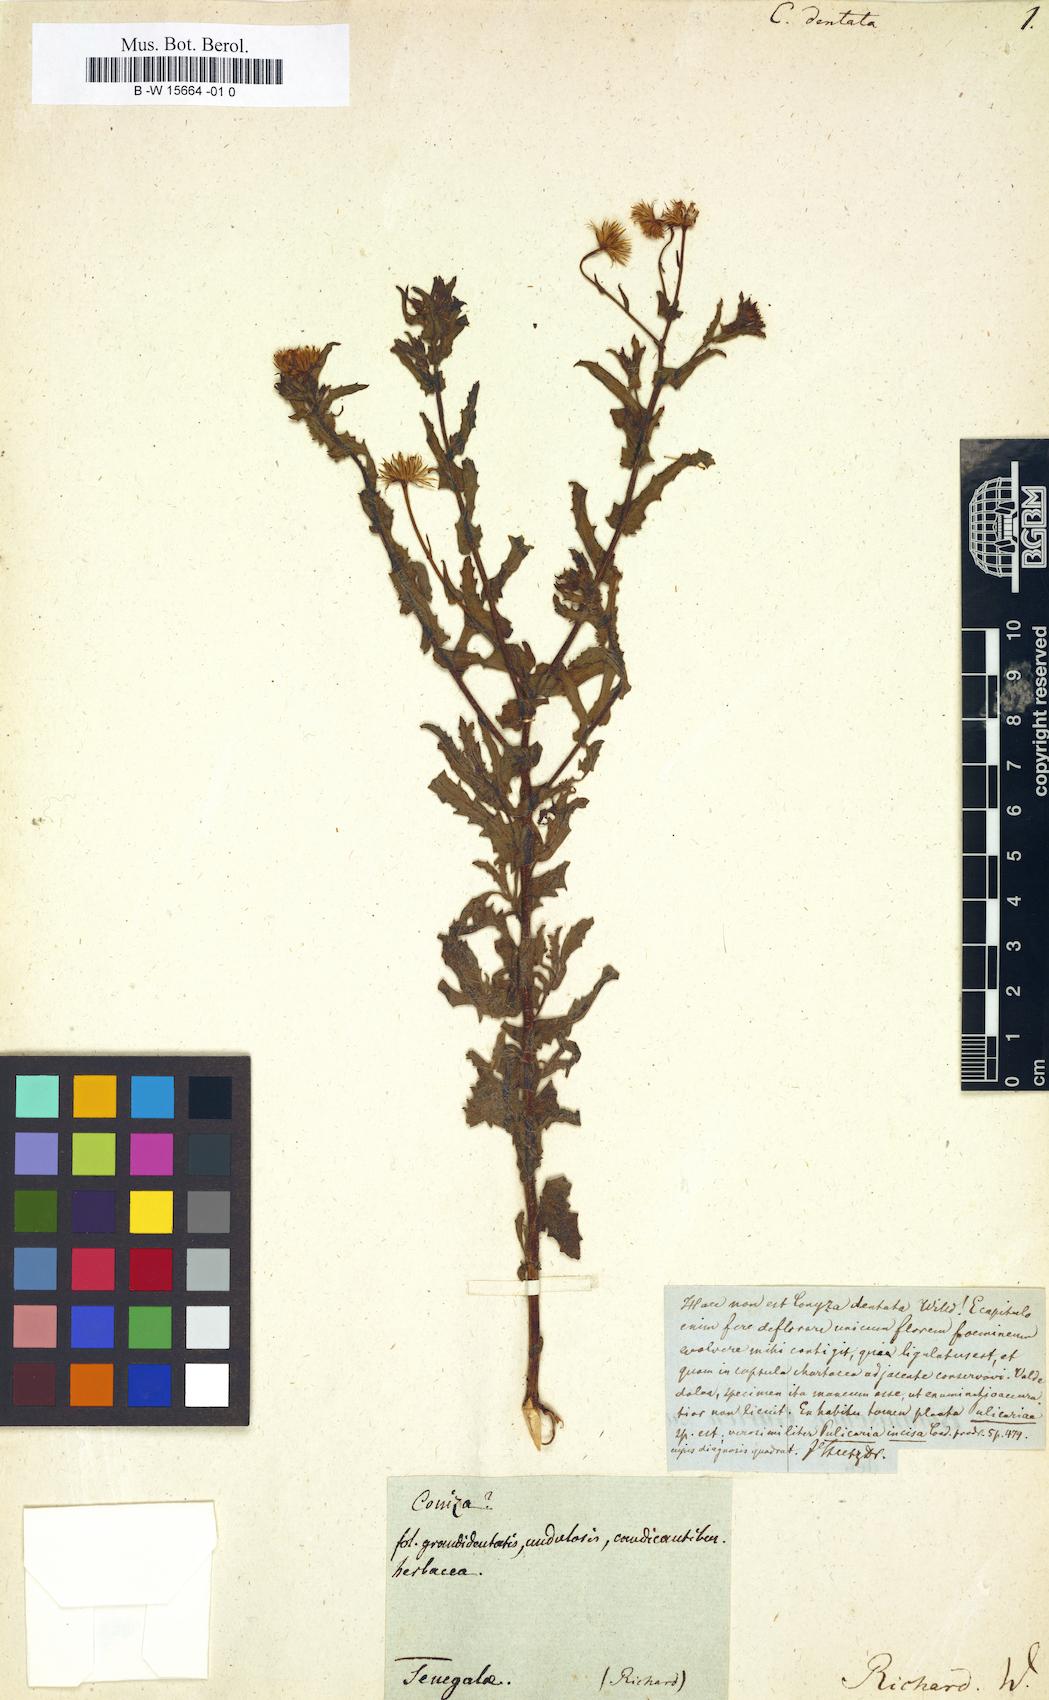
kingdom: Plantae
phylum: Tracheophyta
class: Magnoliopsida
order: Asterales
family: Asteraceae
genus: Conyza
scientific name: Conyza dentata
